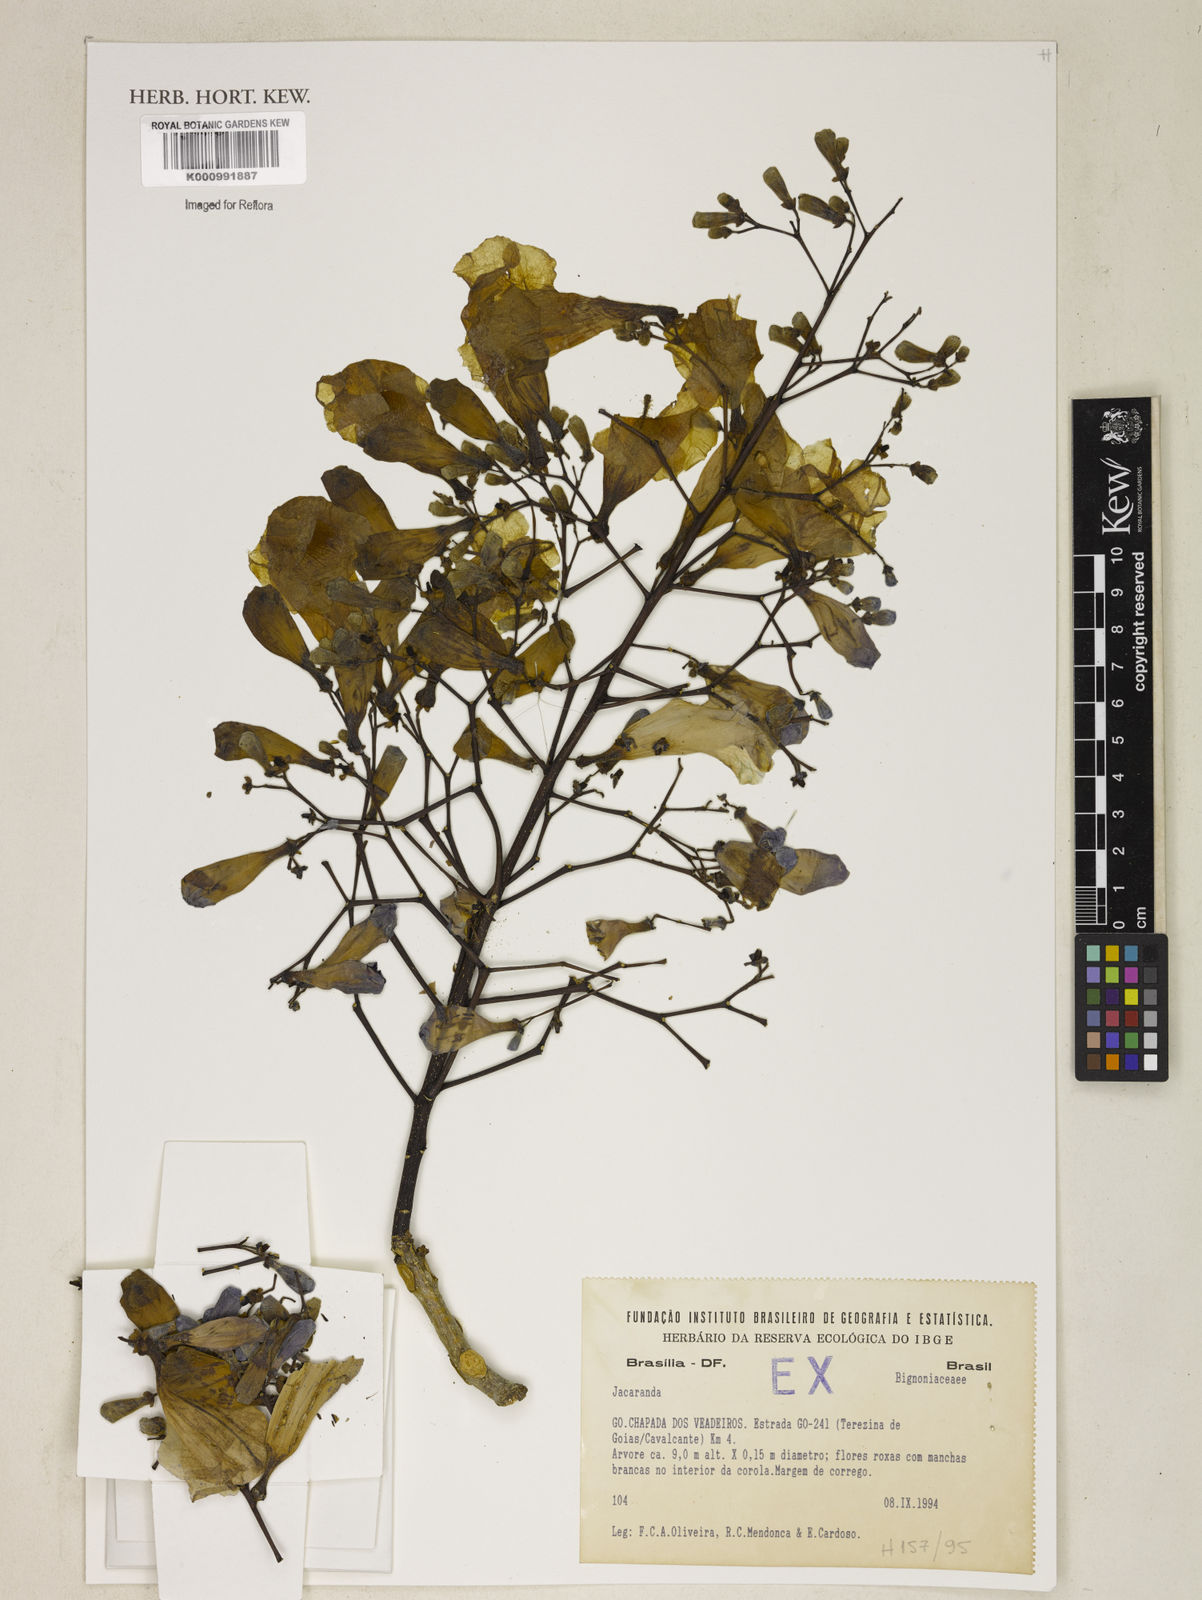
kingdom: Plantae
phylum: Tracheophyta
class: Magnoliopsida
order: Lamiales
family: Bignoniaceae
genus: Jacaranda
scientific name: Jacaranda
